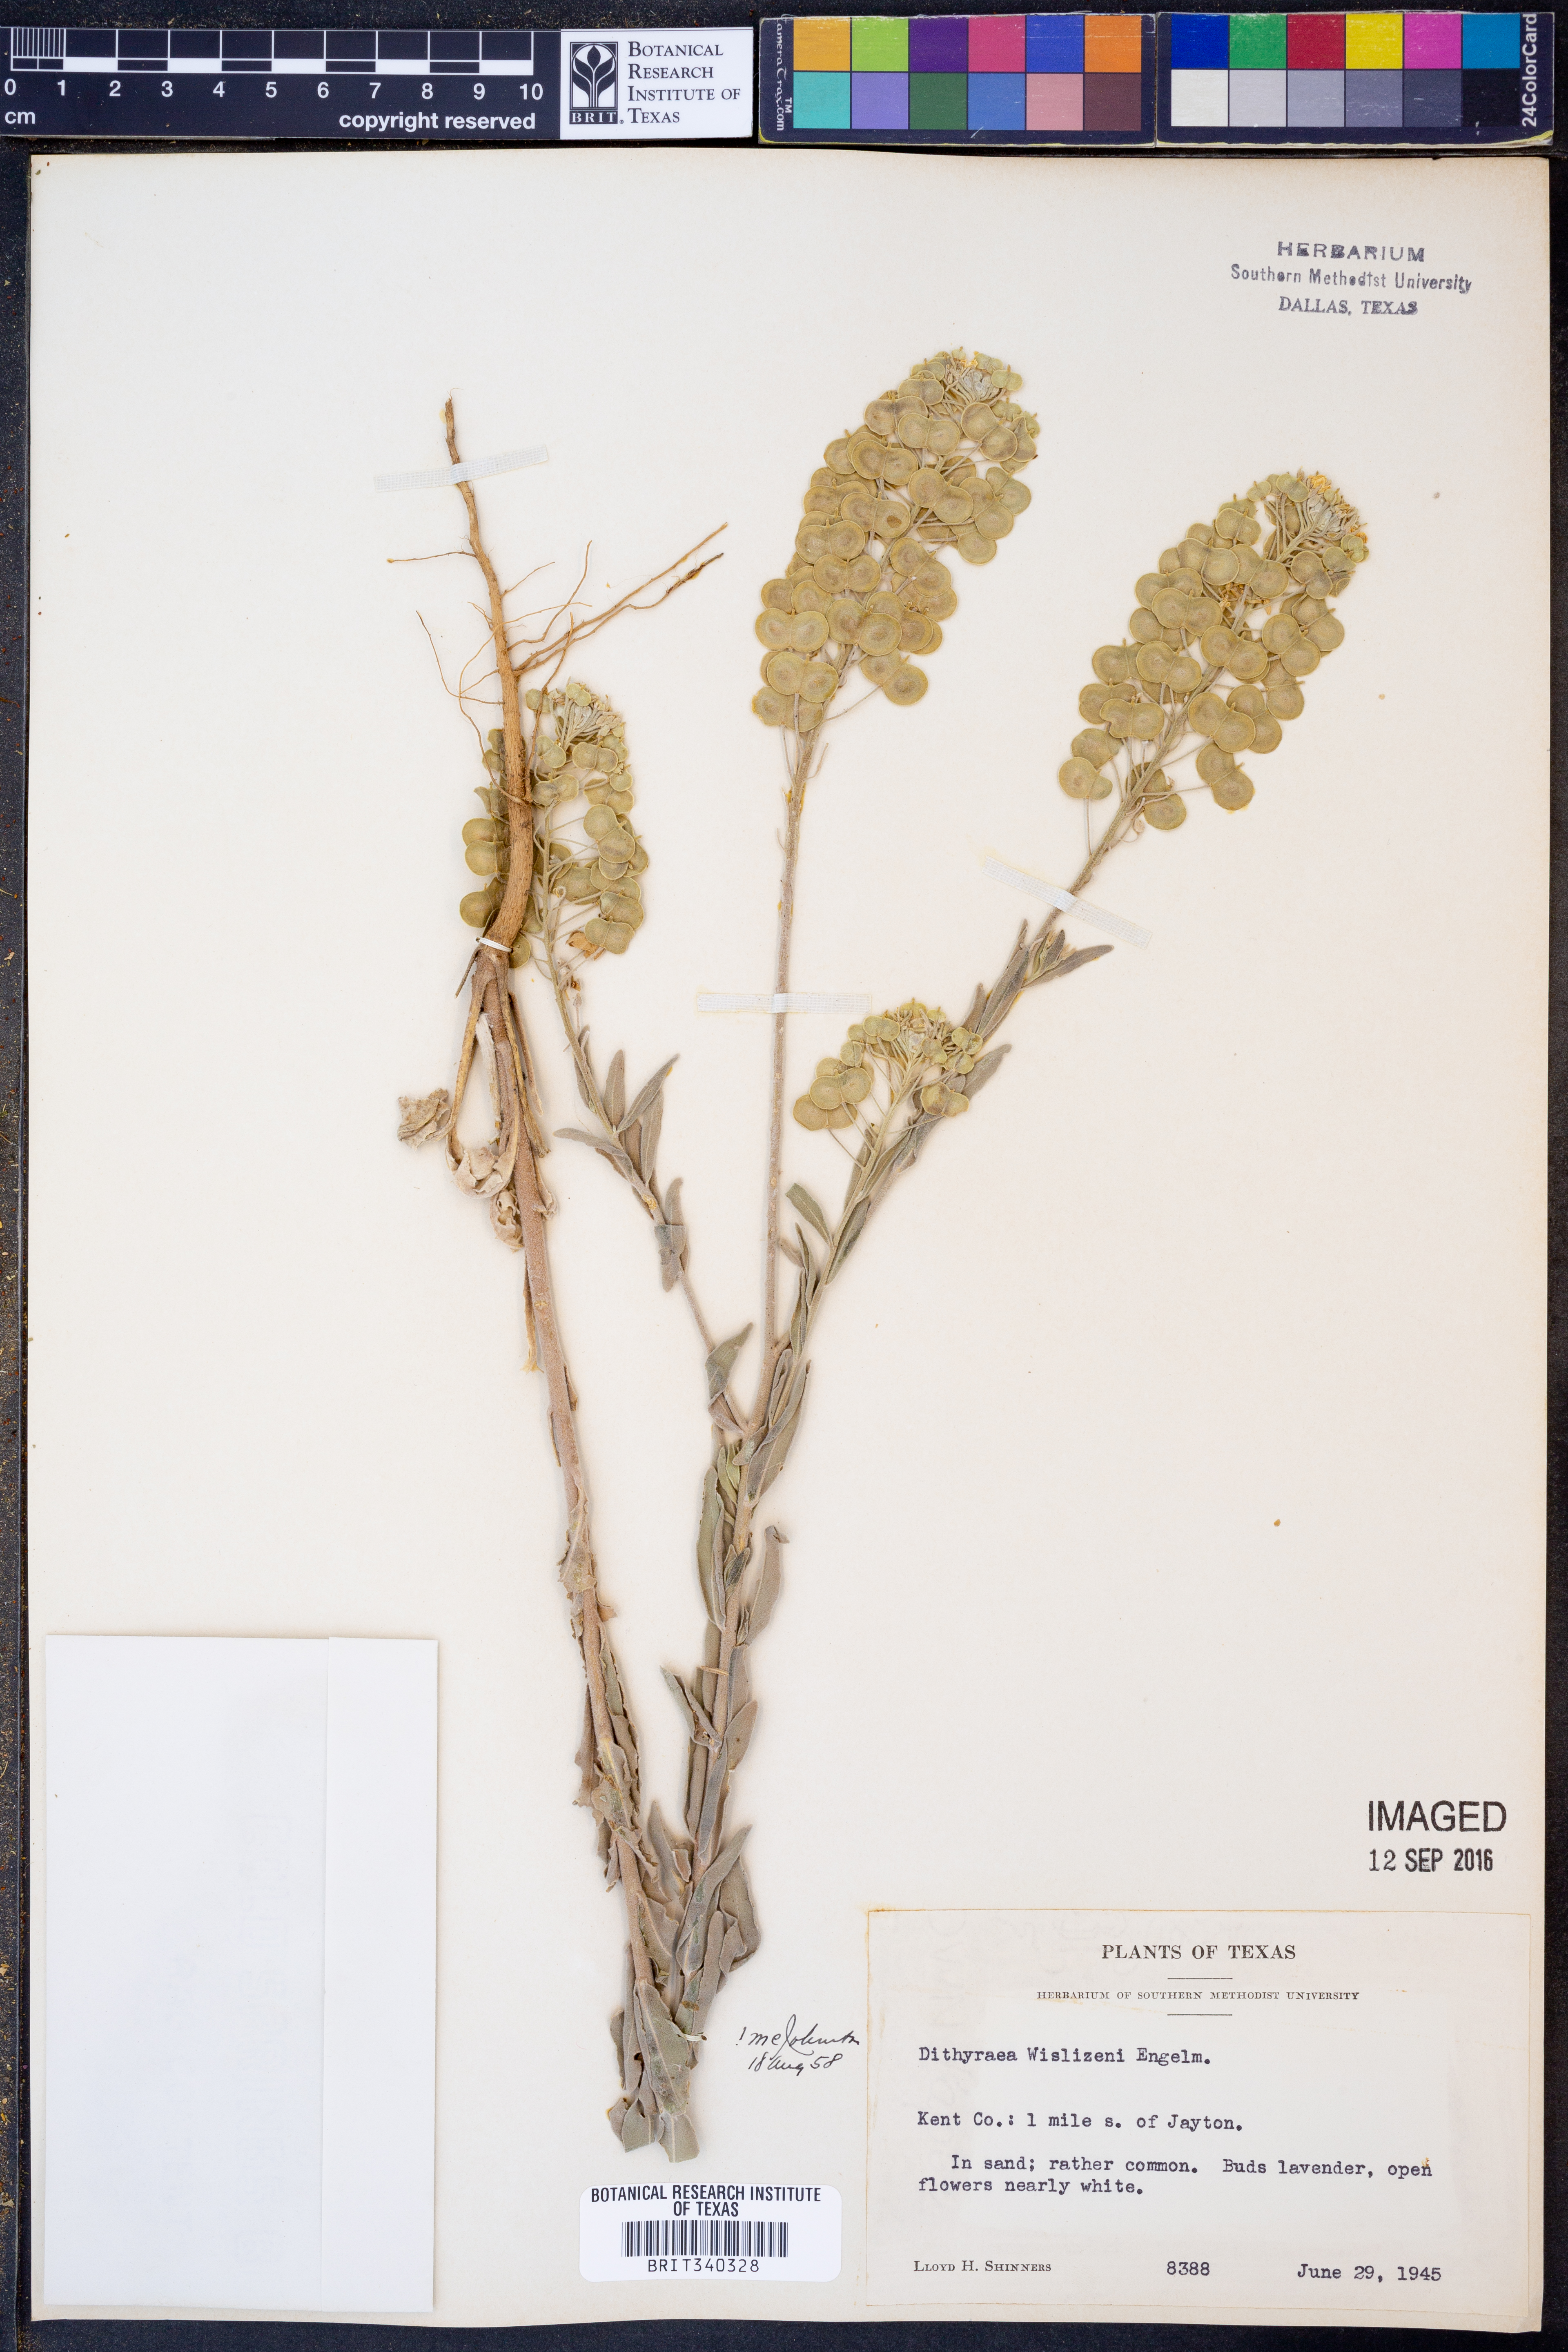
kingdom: Plantae
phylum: Tracheophyta
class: Magnoliopsida
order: Brassicales
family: Brassicaceae
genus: Dimorphocarpa
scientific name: Dimorphocarpa wislizenii
